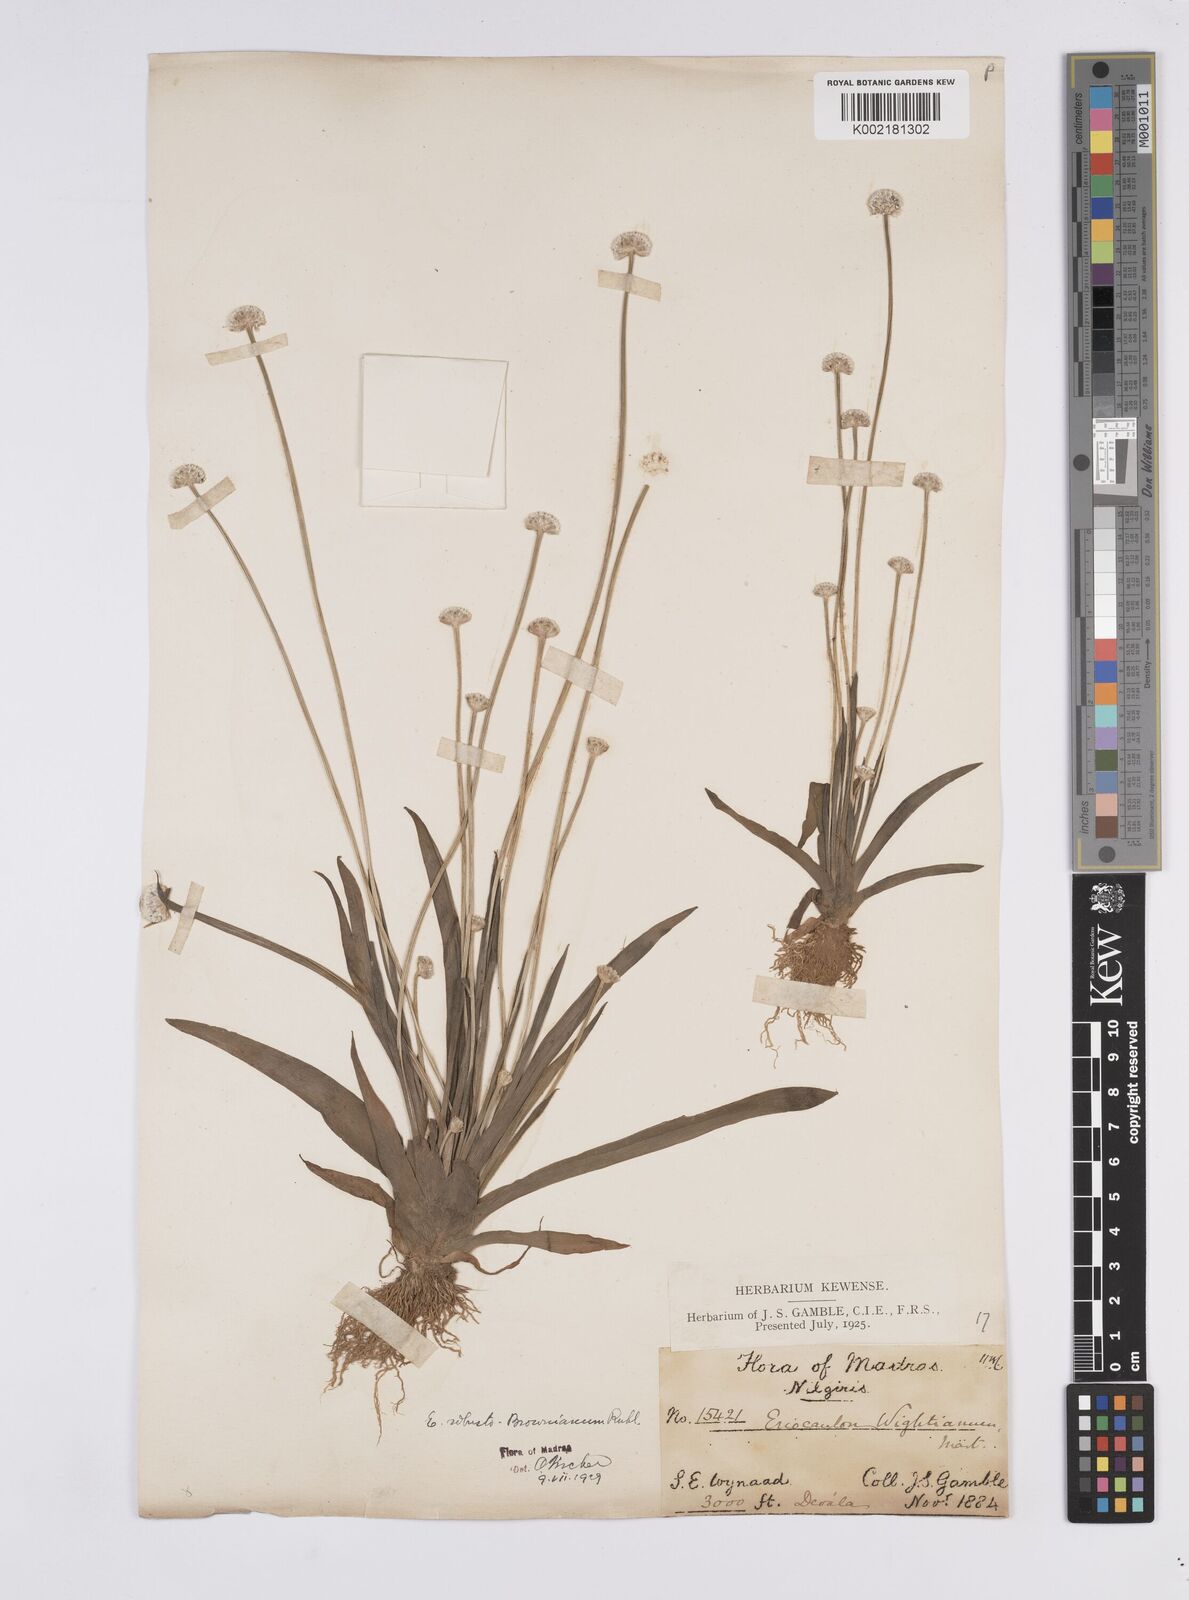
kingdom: Plantae
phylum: Tracheophyta
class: Liliopsida
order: Poales
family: Eriocaulaceae
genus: Eriocaulon
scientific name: Eriocaulon robustobrownianum
